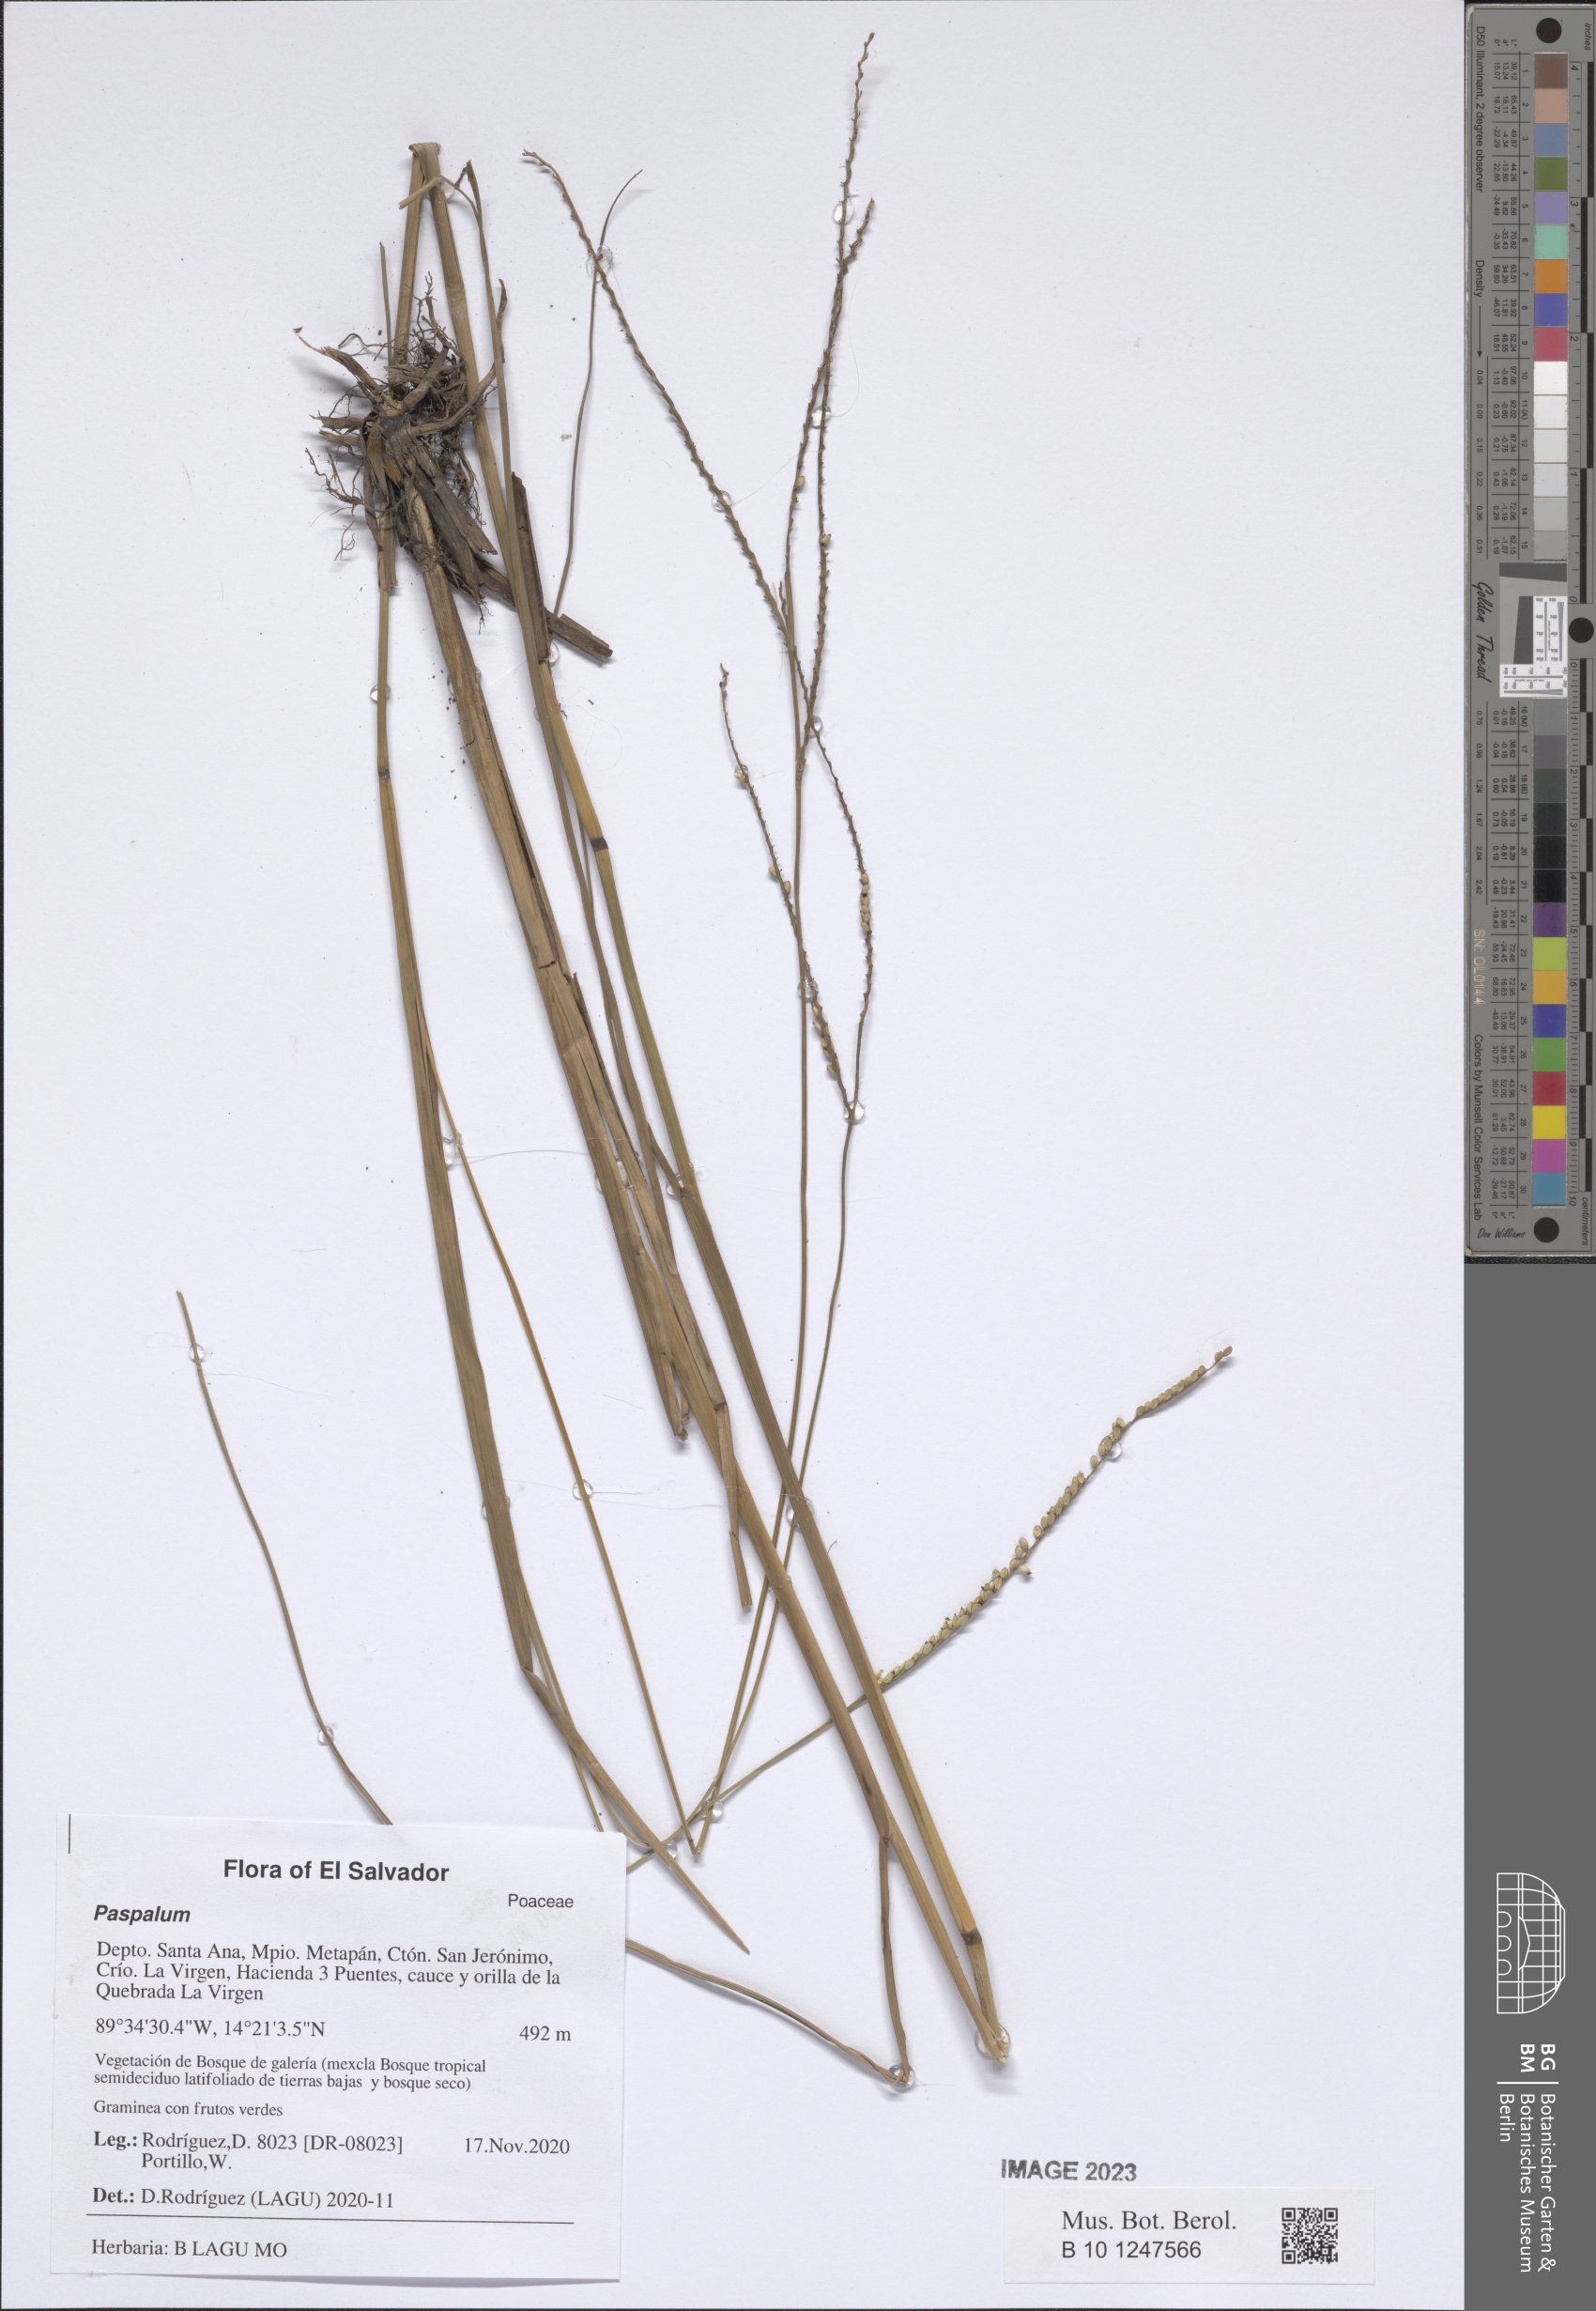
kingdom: Plantae
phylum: Tracheophyta
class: Liliopsida
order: Poales
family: Poaceae
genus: Paspalum
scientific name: Paspalum
